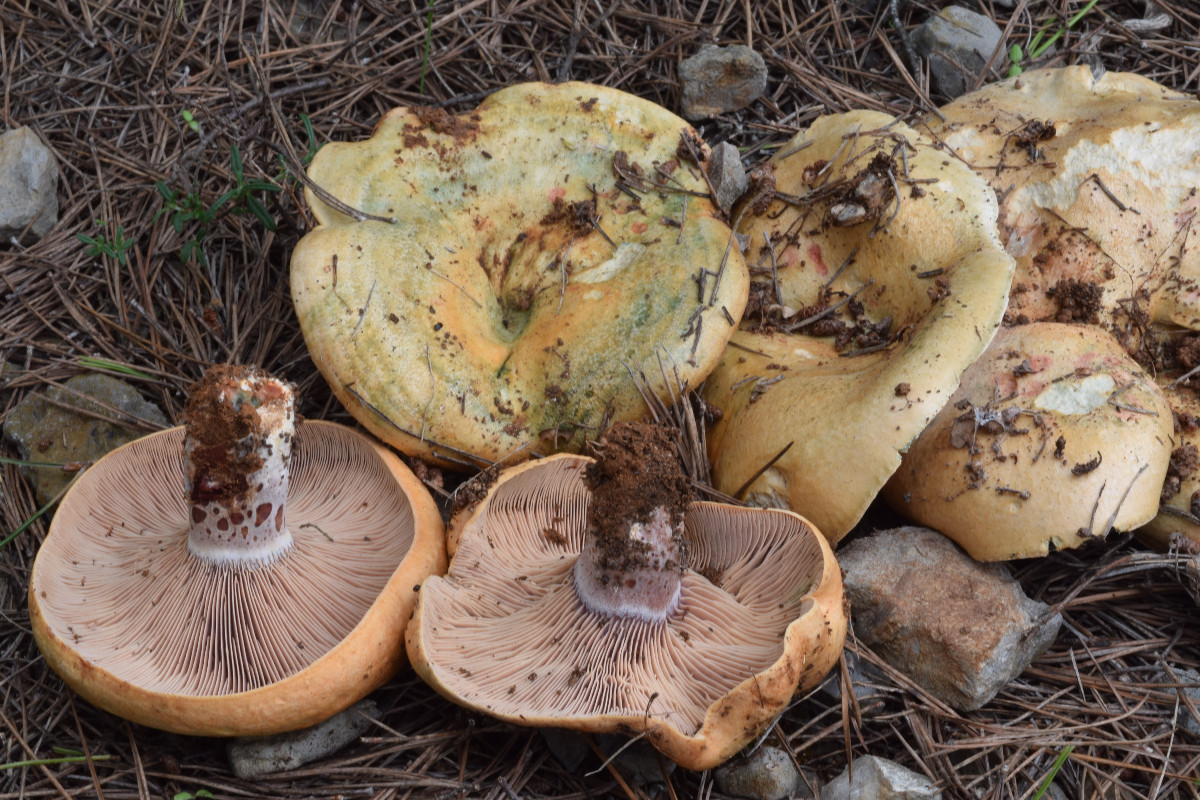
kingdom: Fungi
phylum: Basidiomycota
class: Agaricomycetes
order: Russulales
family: Russulaceae
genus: Lactarius
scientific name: Lactarius sanguifluus
